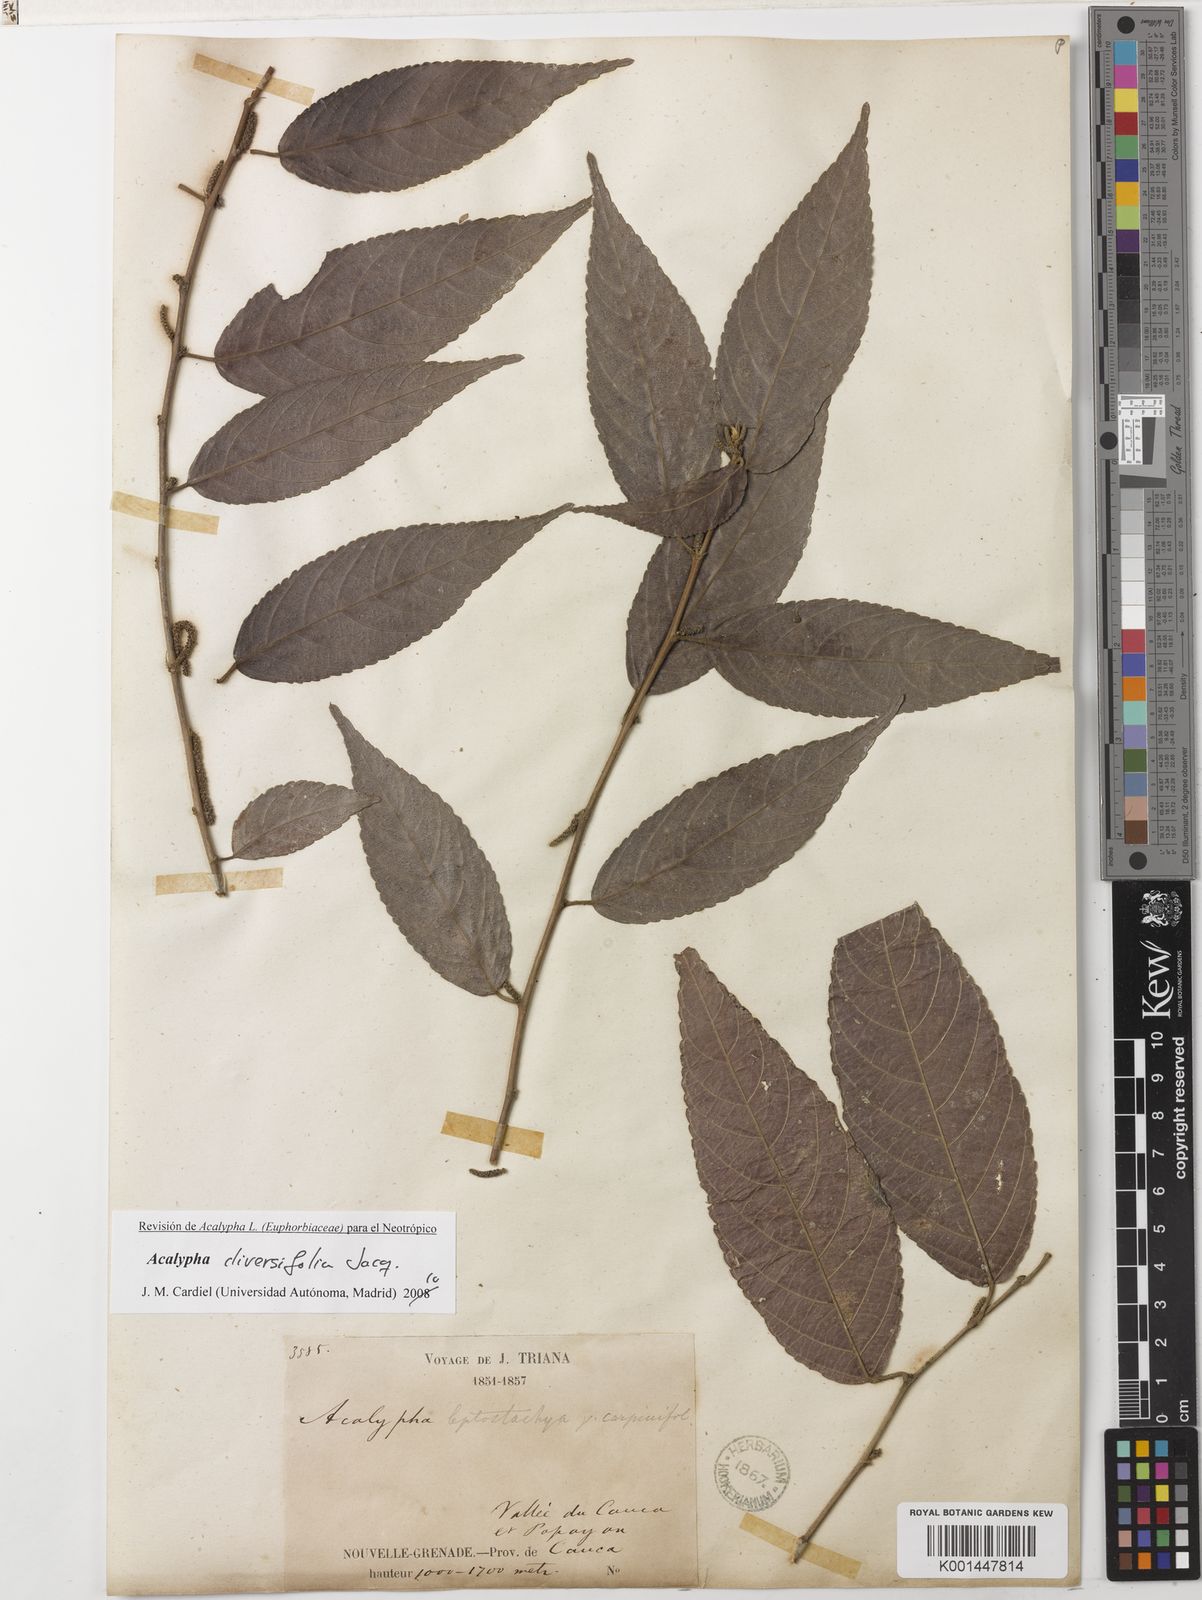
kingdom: Plantae
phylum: Tracheophyta
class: Magnoliopsida
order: Malpighiales
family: Euphorbiaceae
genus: Acalypha
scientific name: Acalypha diversifolia
